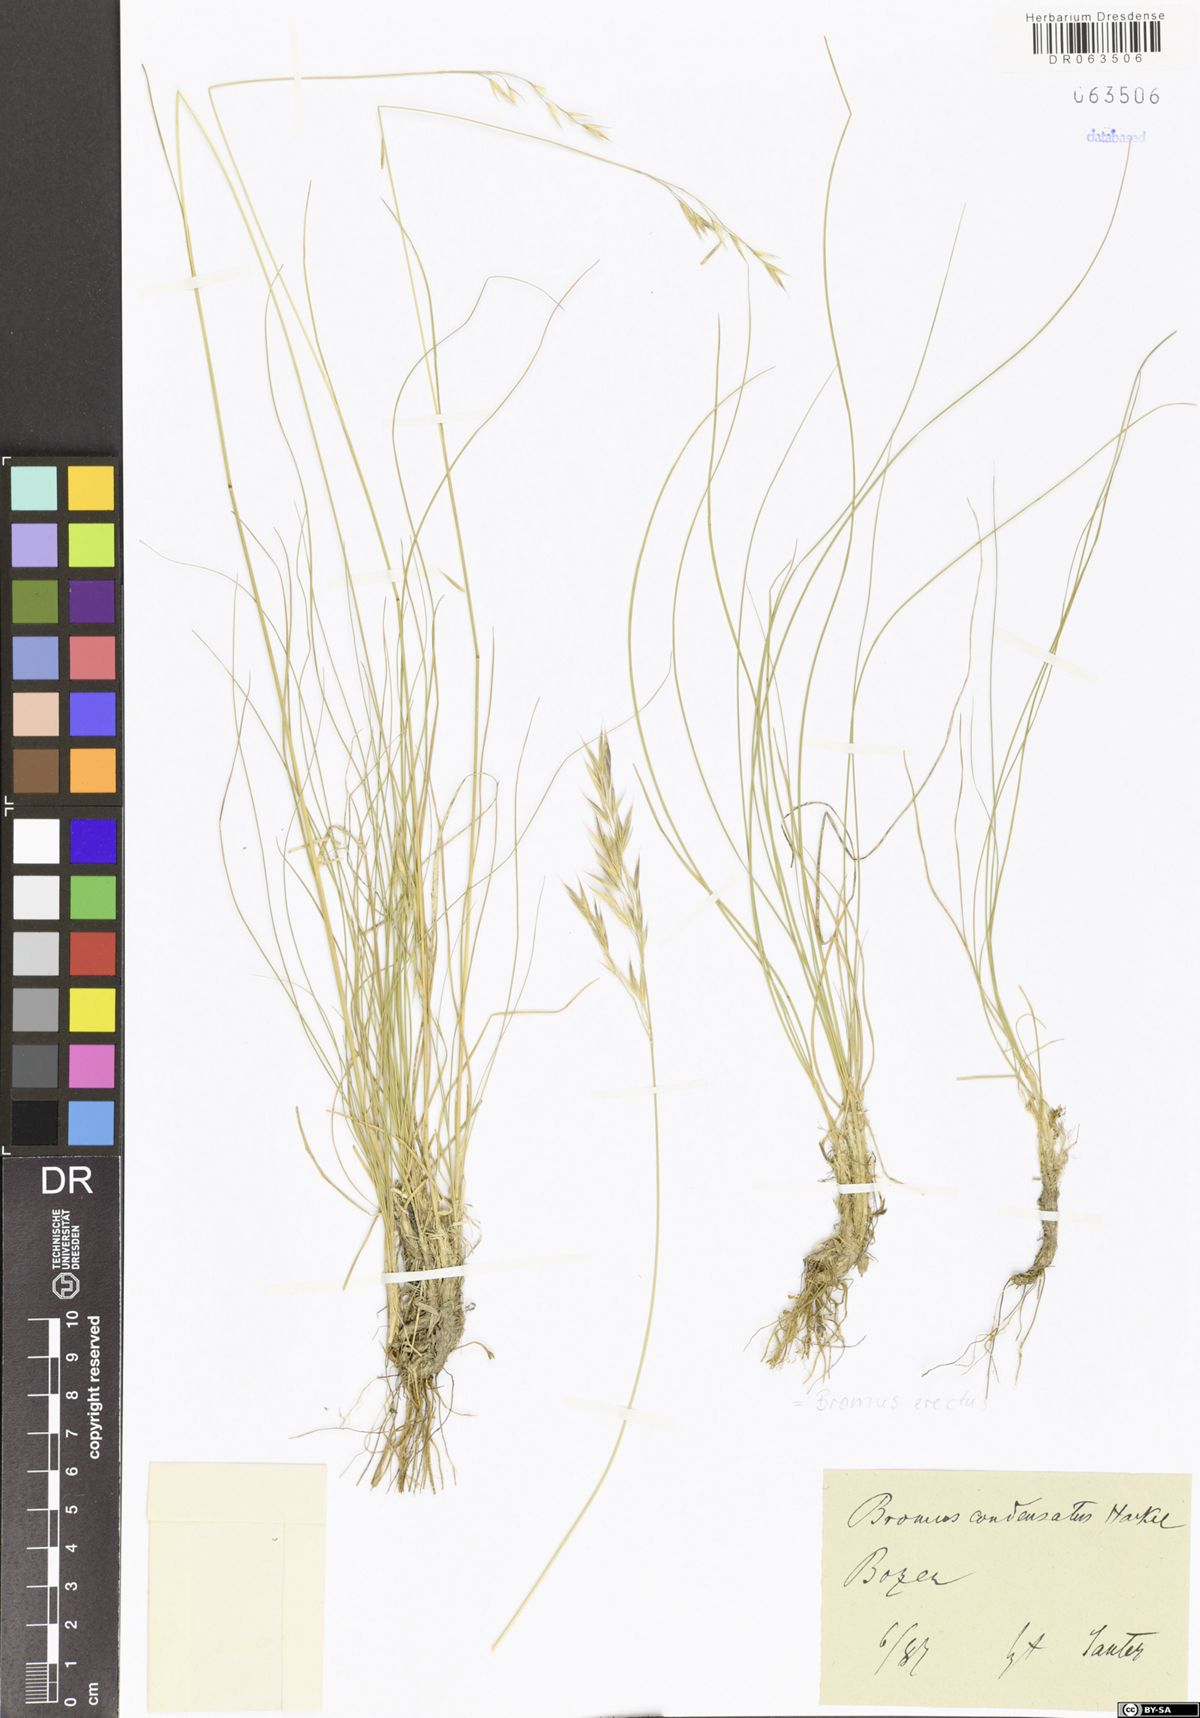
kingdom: Plantae
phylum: Tracheophyta
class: Liliopsida
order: Poales
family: Poaceae
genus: Bromus
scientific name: Bromus erectus
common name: Erect brome
